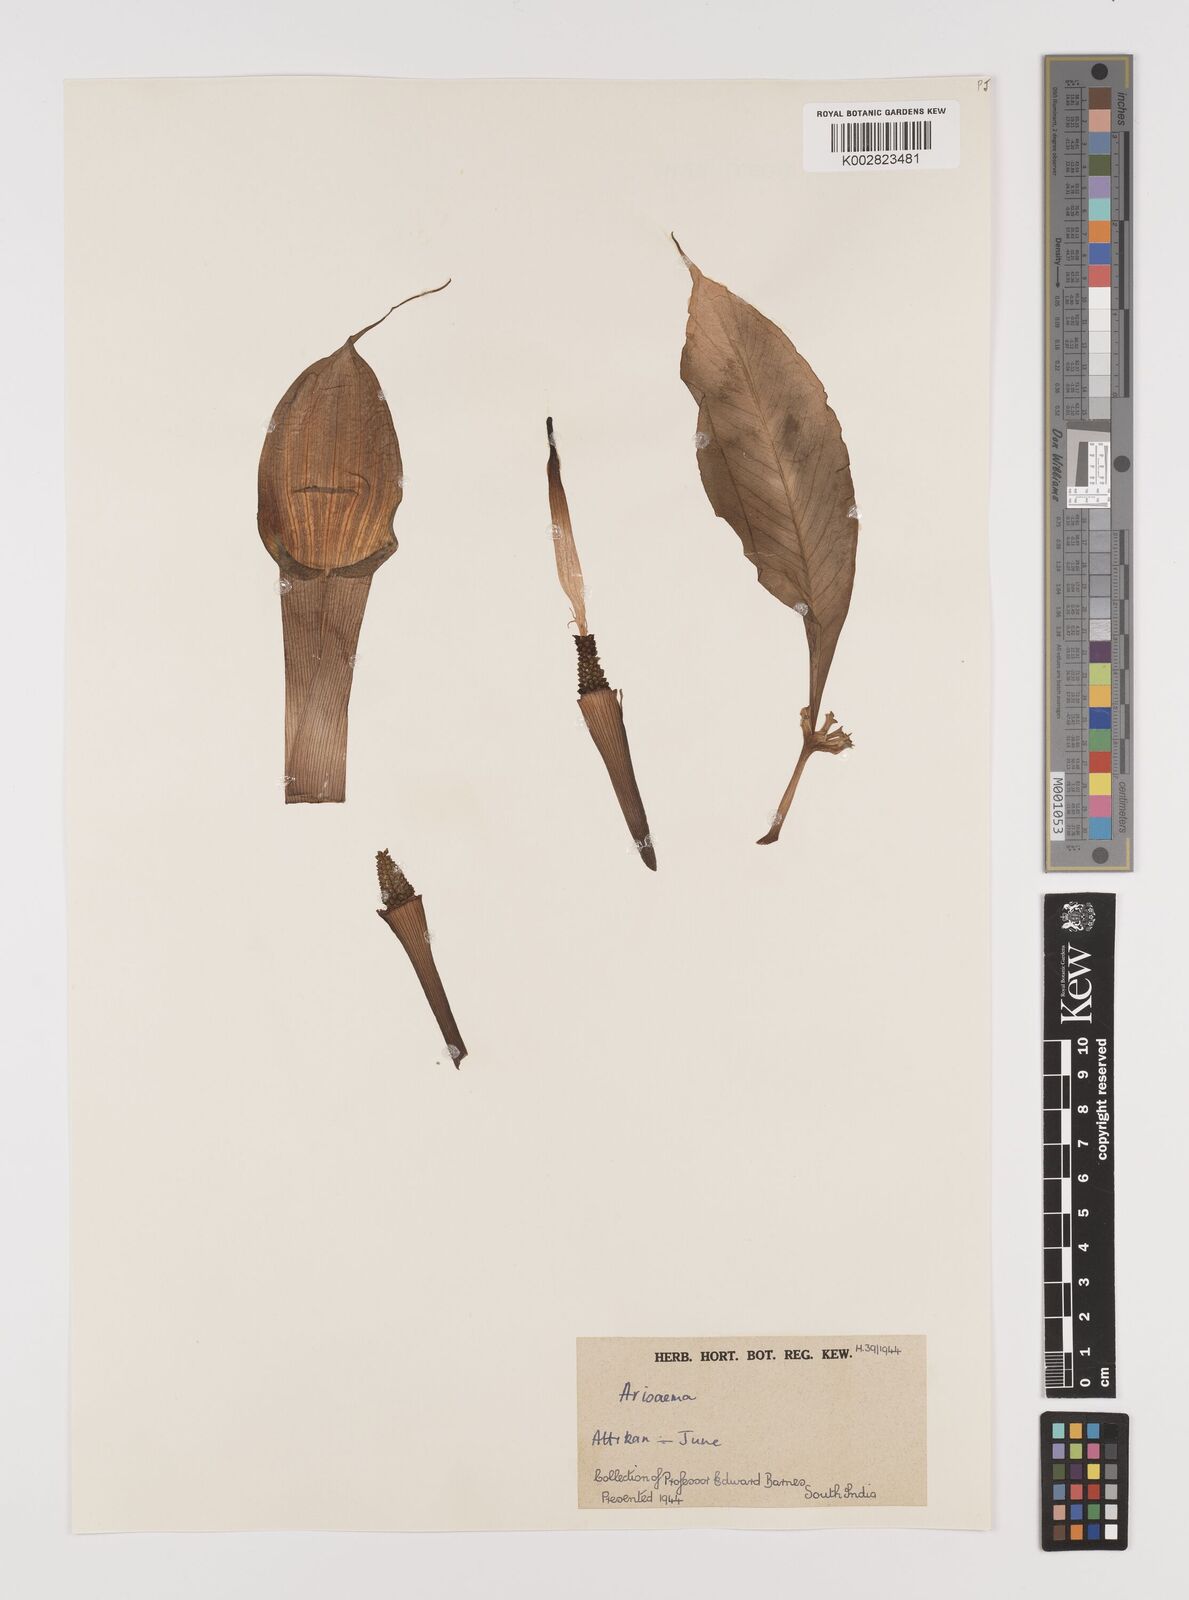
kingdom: Plantae
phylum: Tracheophyta
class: Liliopsida
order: Alismatales
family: Araceae
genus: Arisaema
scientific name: Arisaema
